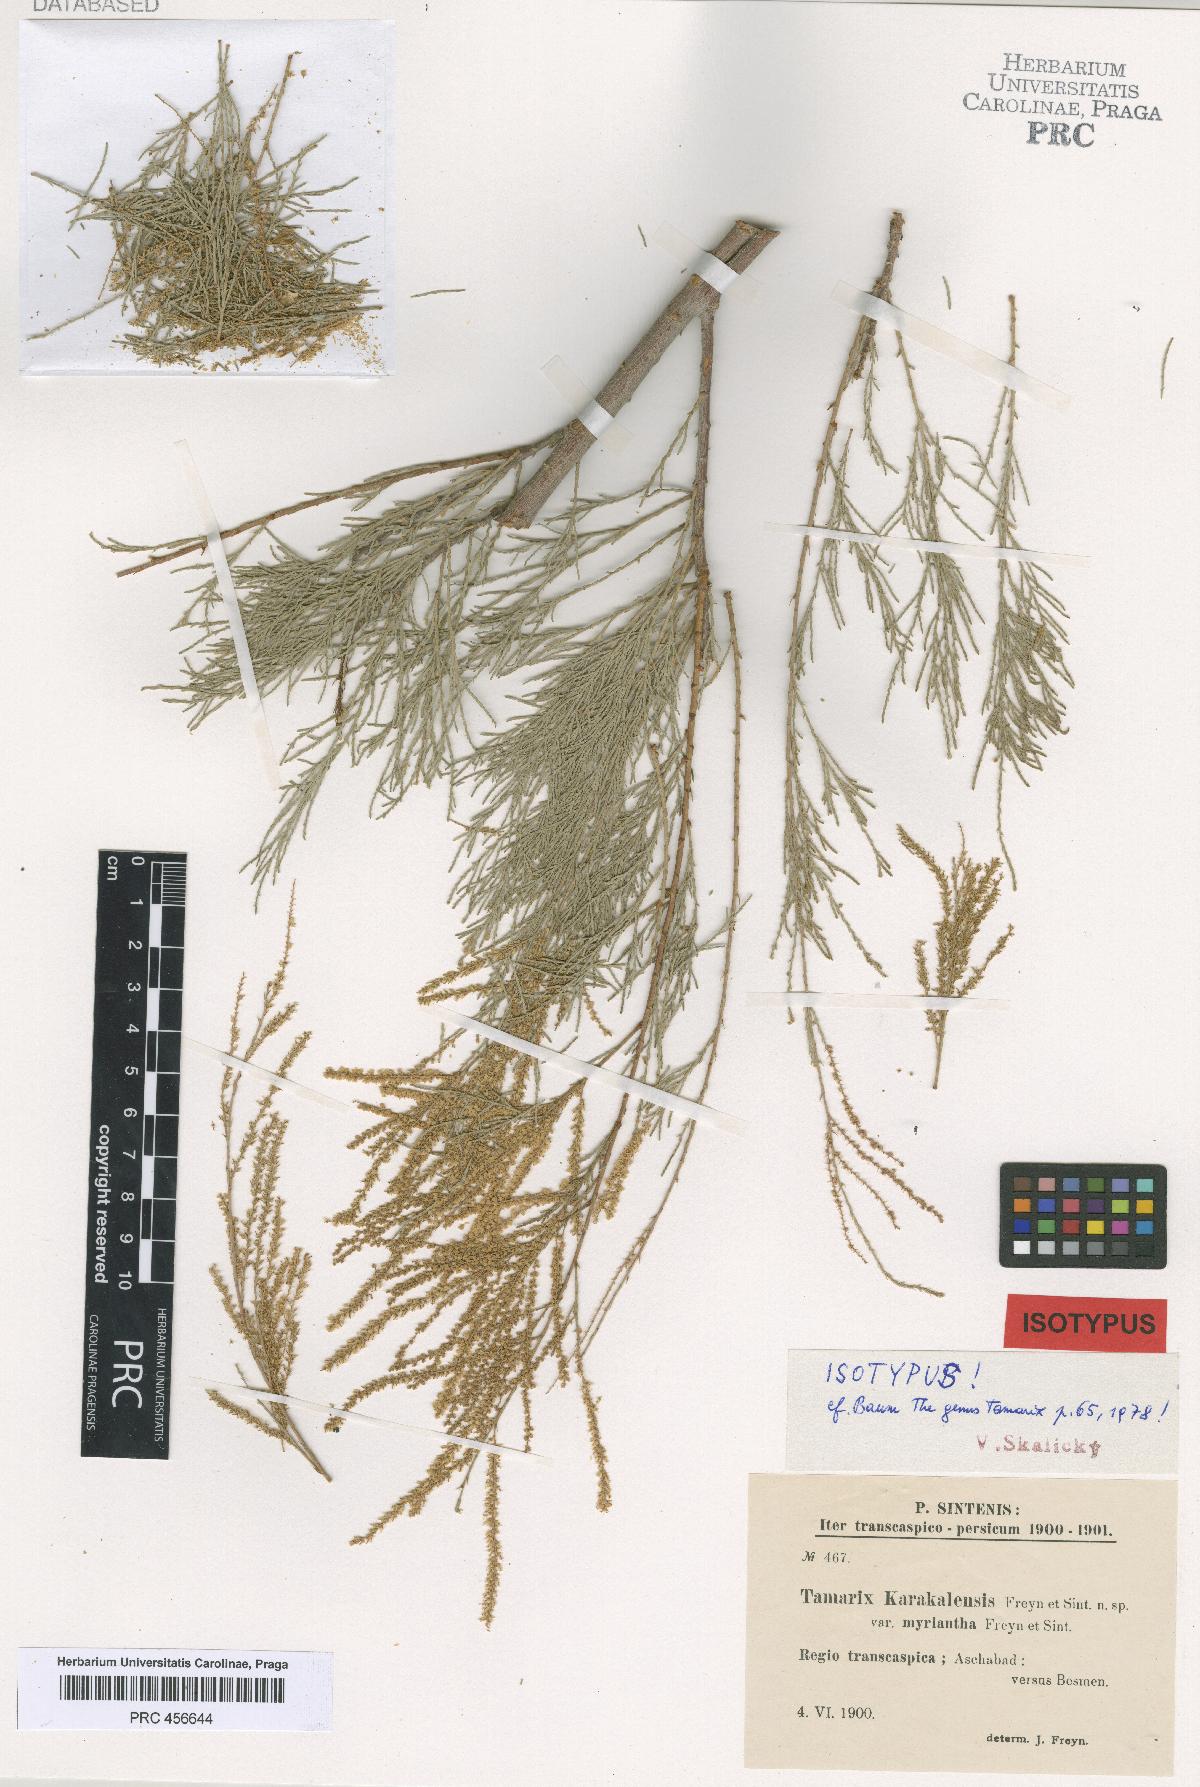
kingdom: Plantae
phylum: Tracheophyta
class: Magnoliopsida
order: Caryophyllales
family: Tamaricaceae
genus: Tamarix
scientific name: Tamarix arceuthoides
